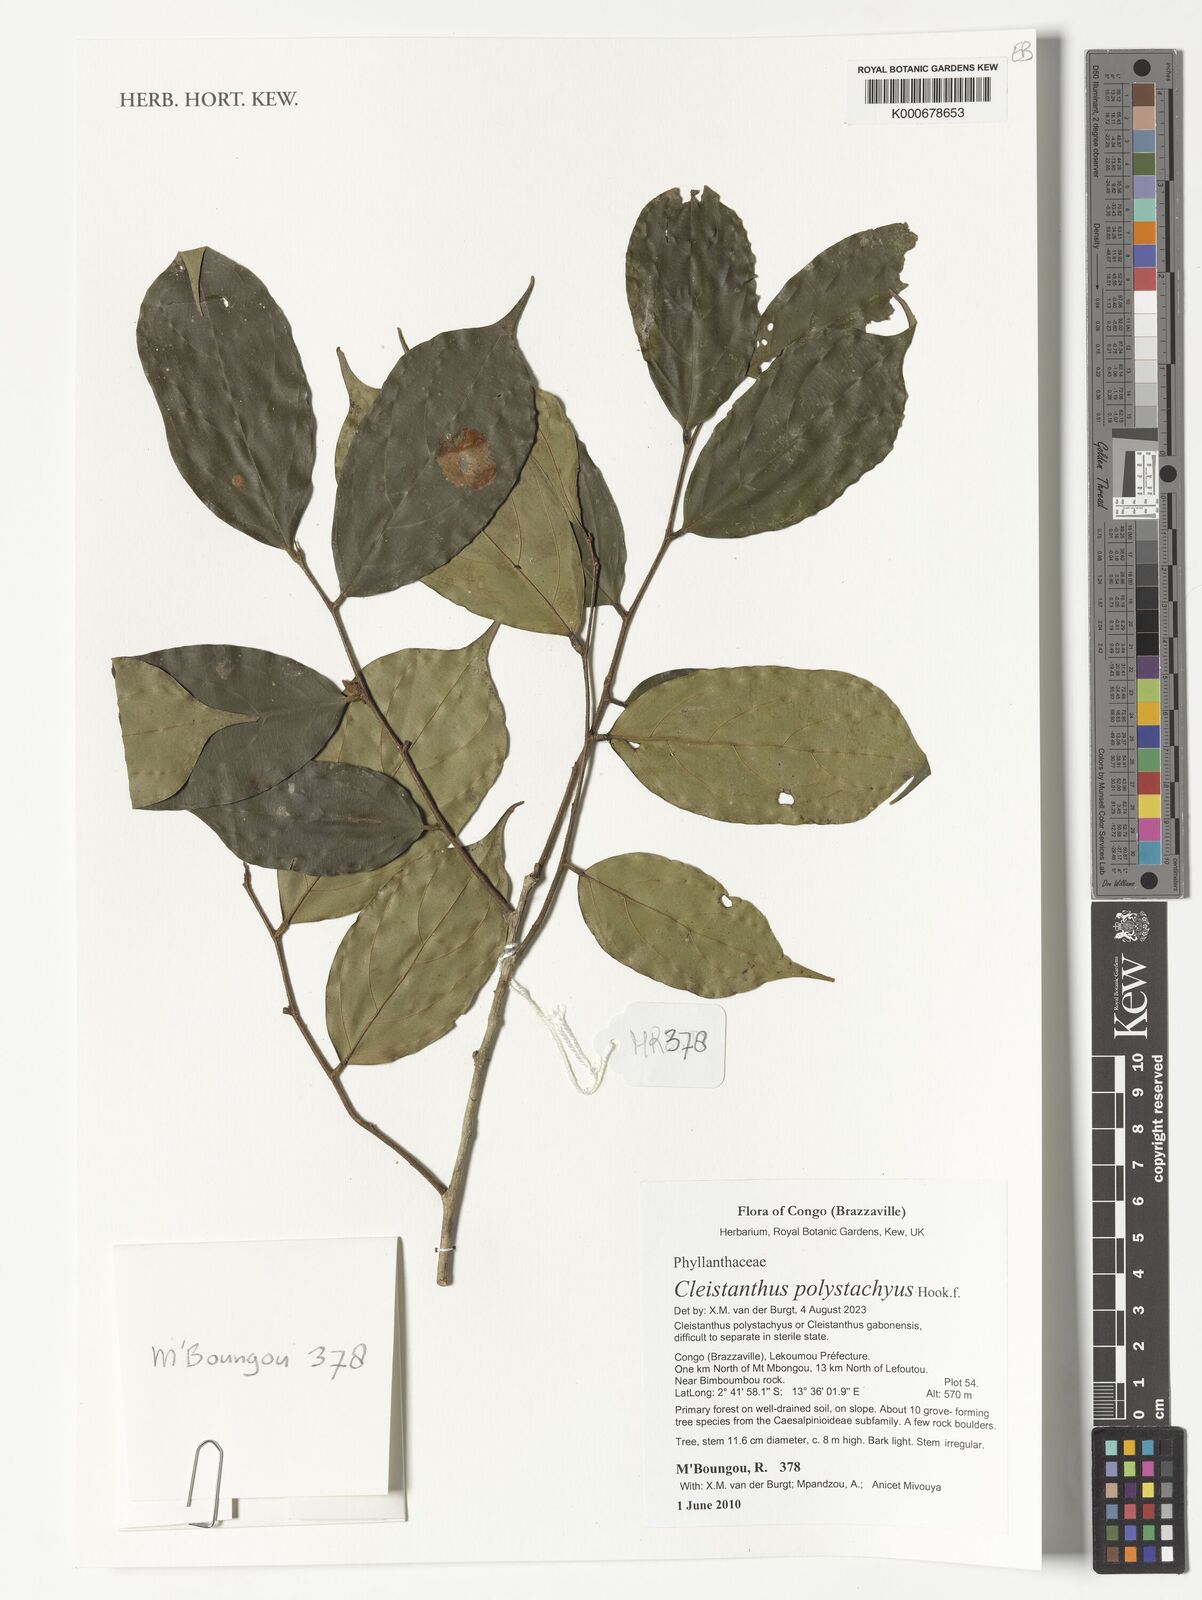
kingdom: Plantae
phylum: Tracheophyta
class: Magnoliopsida
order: Malpighiales
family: Phyllanthaceae
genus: Cleistanthus
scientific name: Cleistanthus polystachyus
